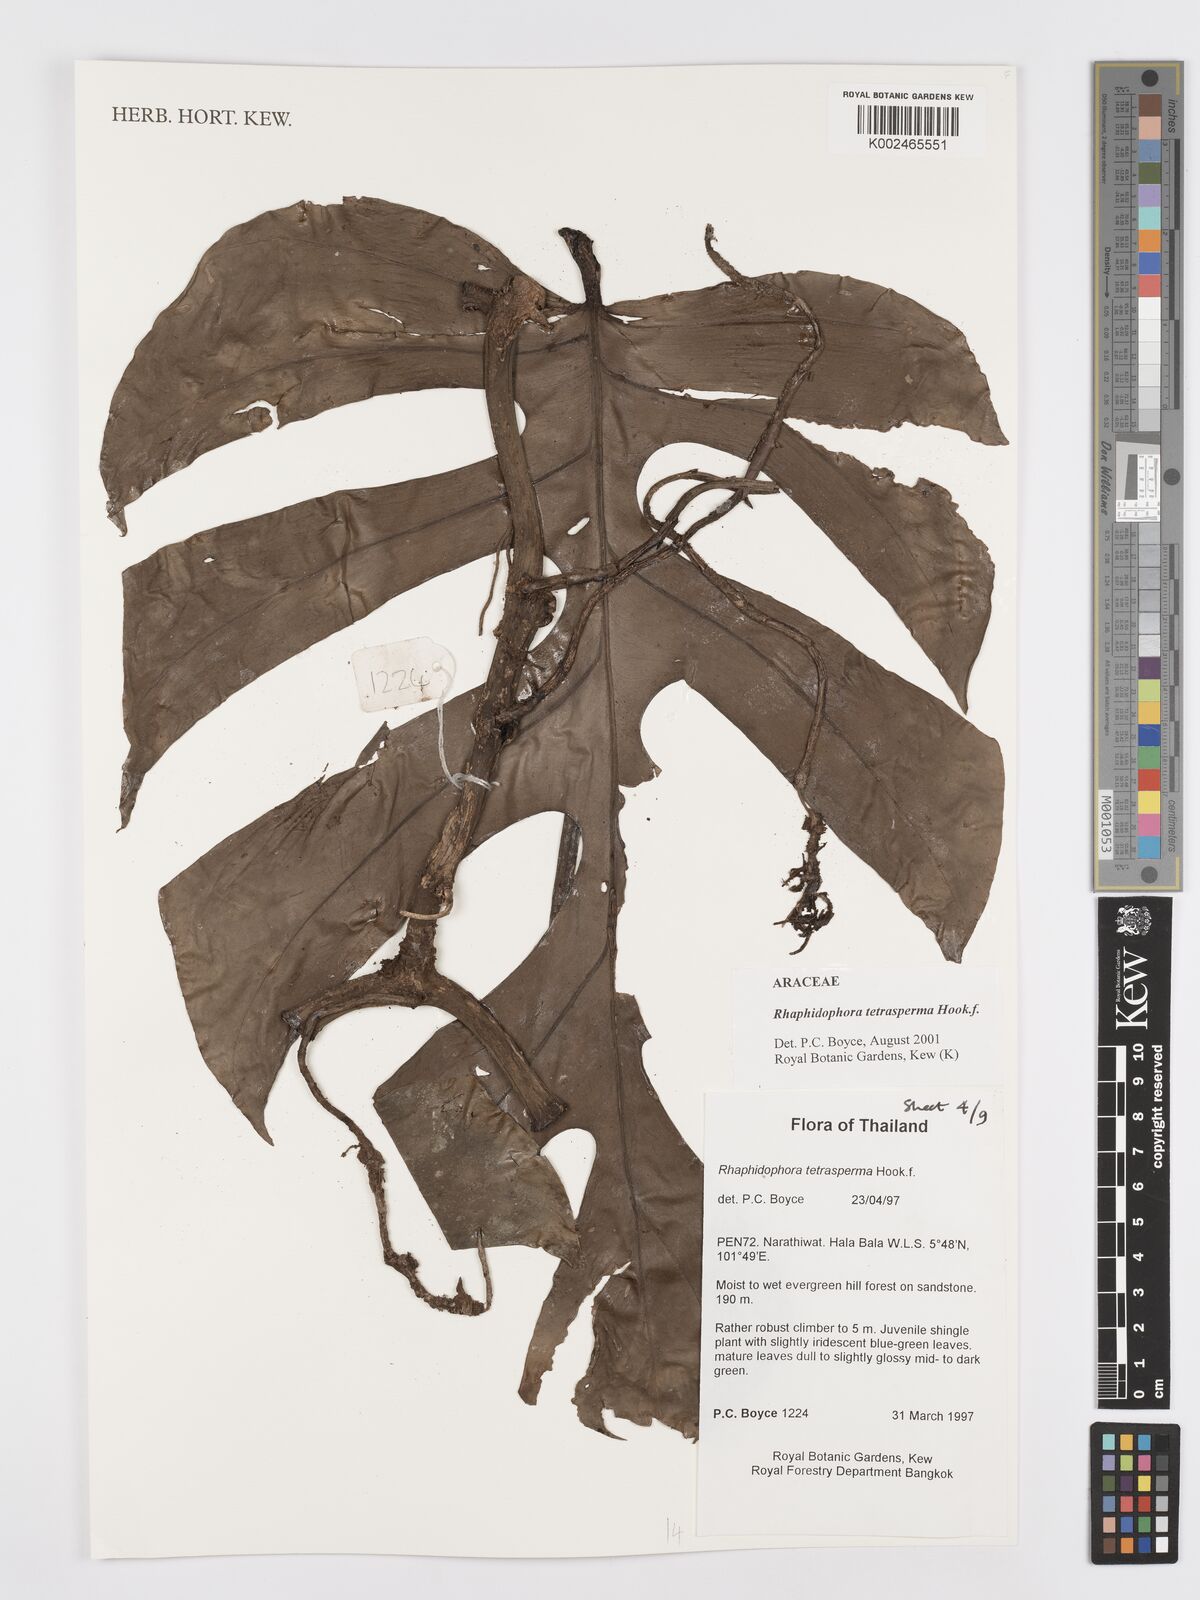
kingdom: Plantae
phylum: Tracheophyta
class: Liliopsida
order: Alismatales
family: Araceae
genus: Rhaphidophora
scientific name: Rhaphidophora tetrasperma
